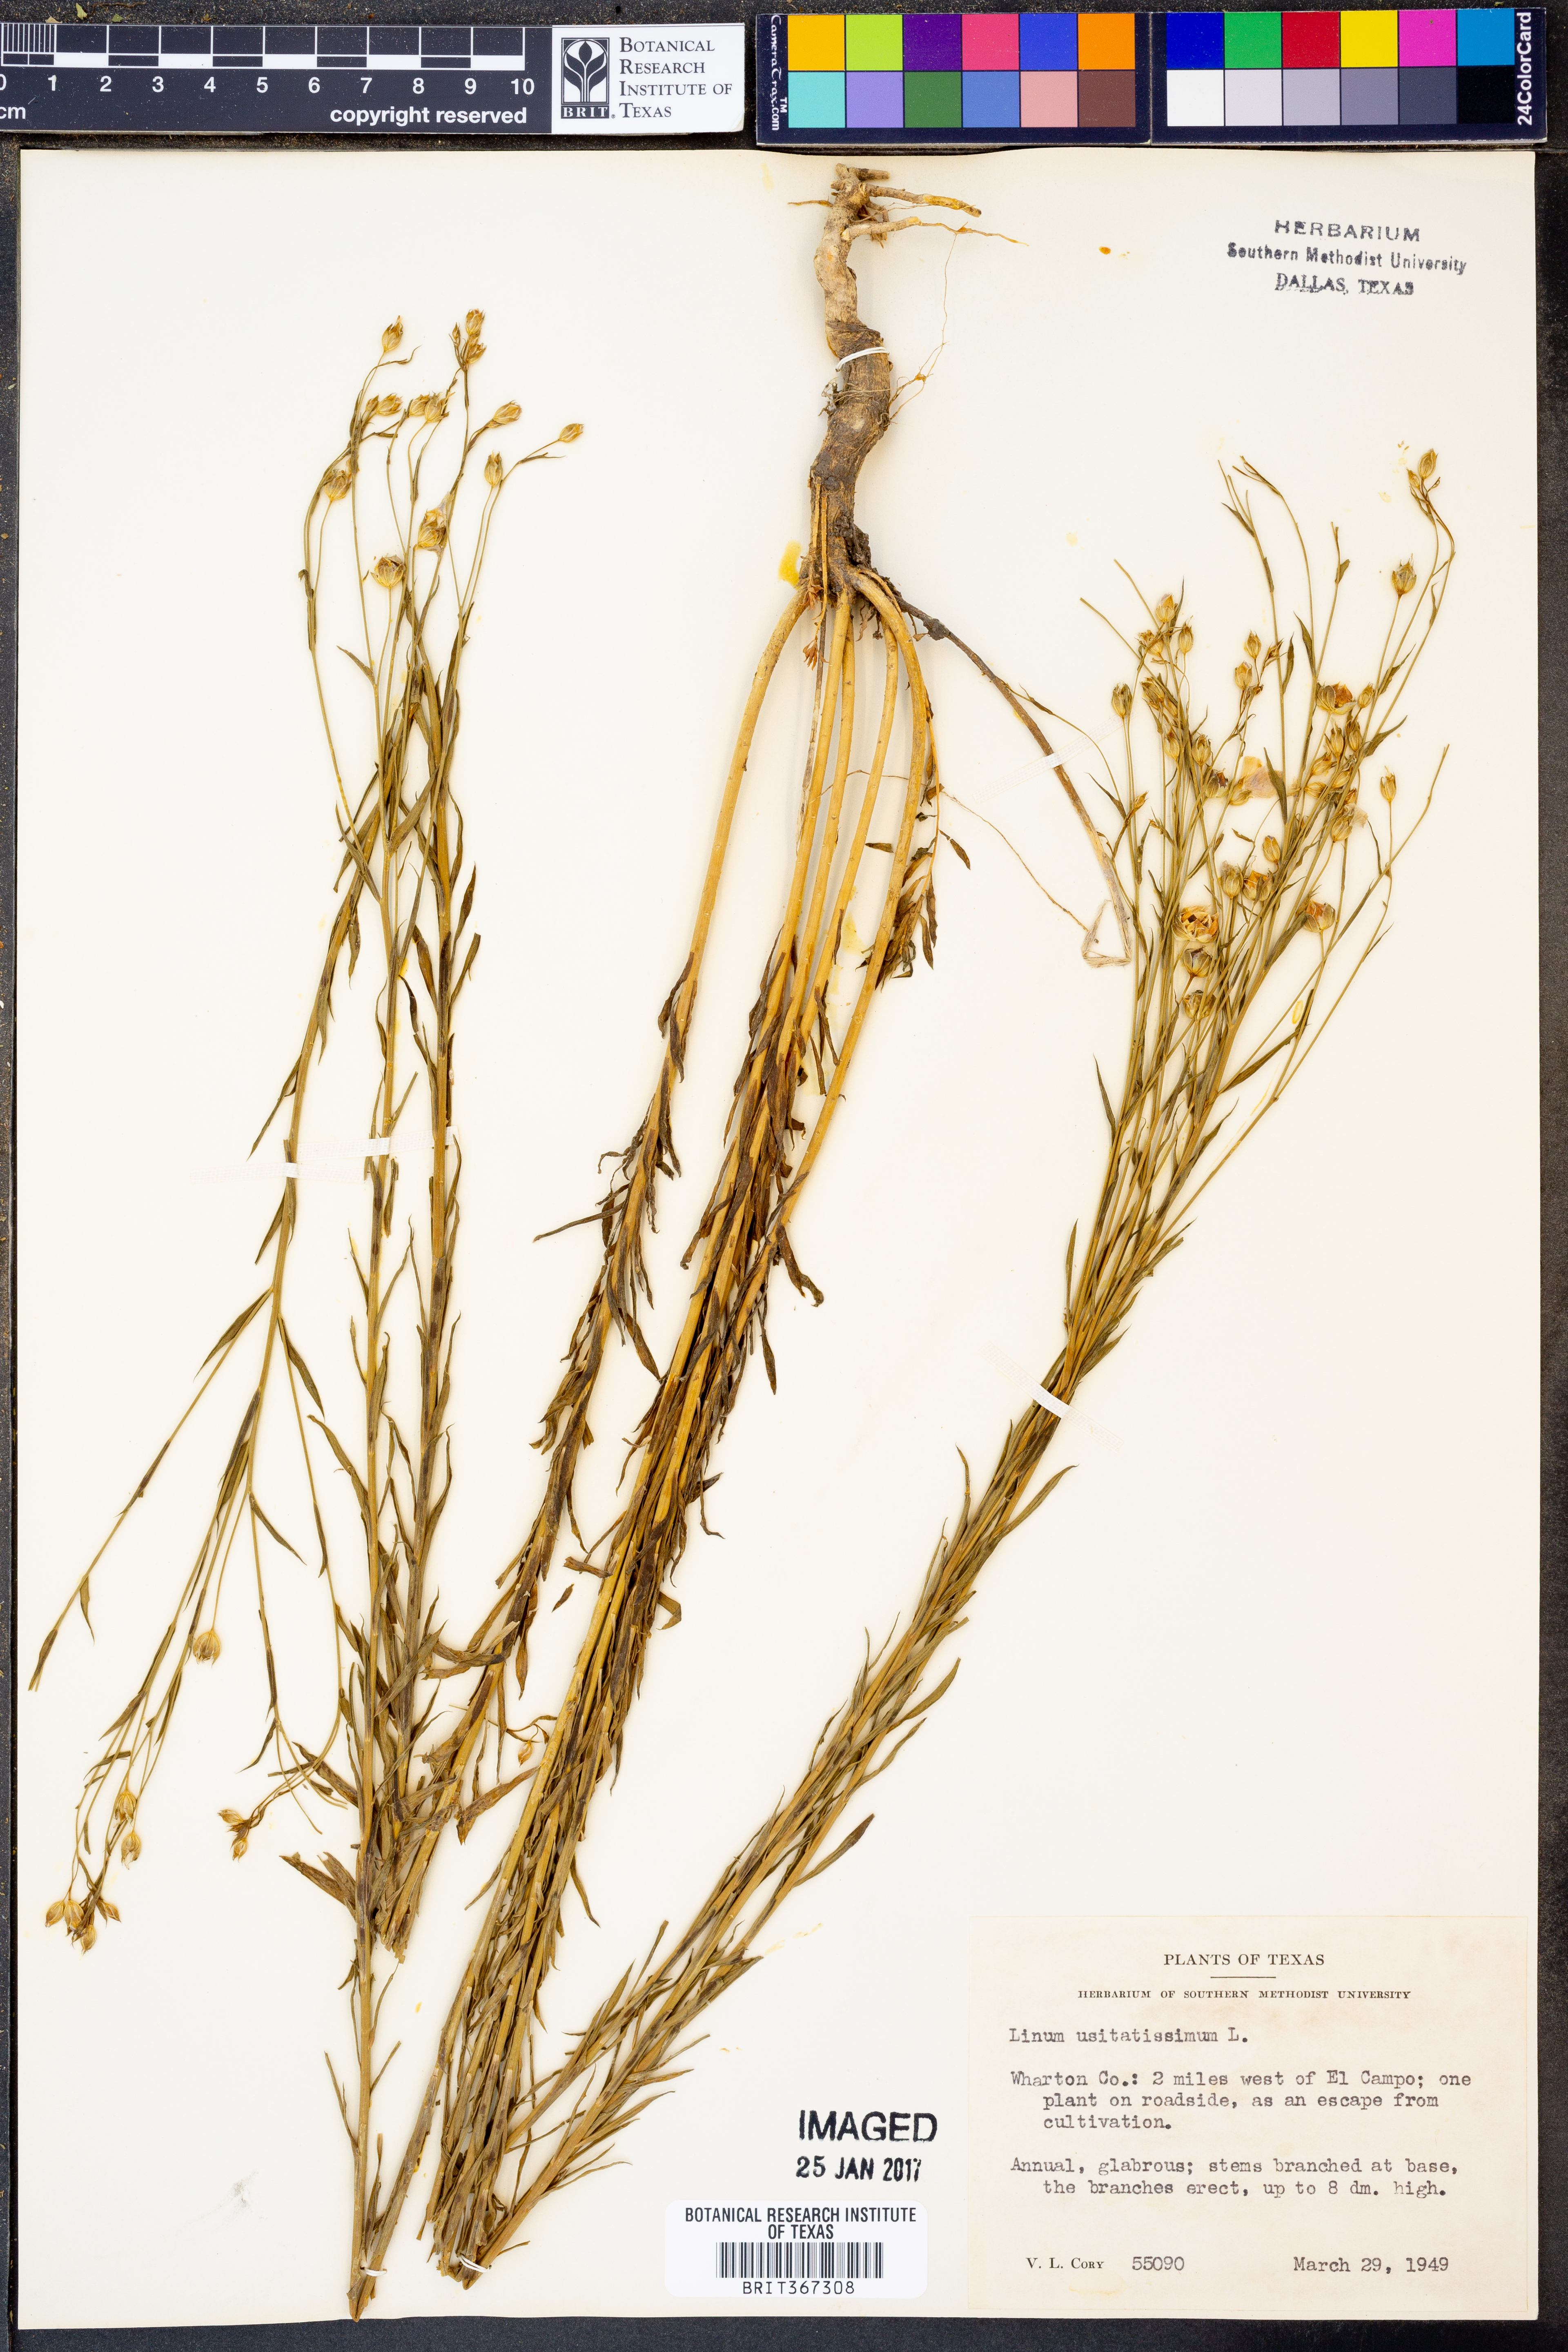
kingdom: Plantae
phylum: Tracheophyta
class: Magnoliopsida
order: Malpighiales
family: Linaceae
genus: Linum
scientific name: Linum usitatissimum
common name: Flax
